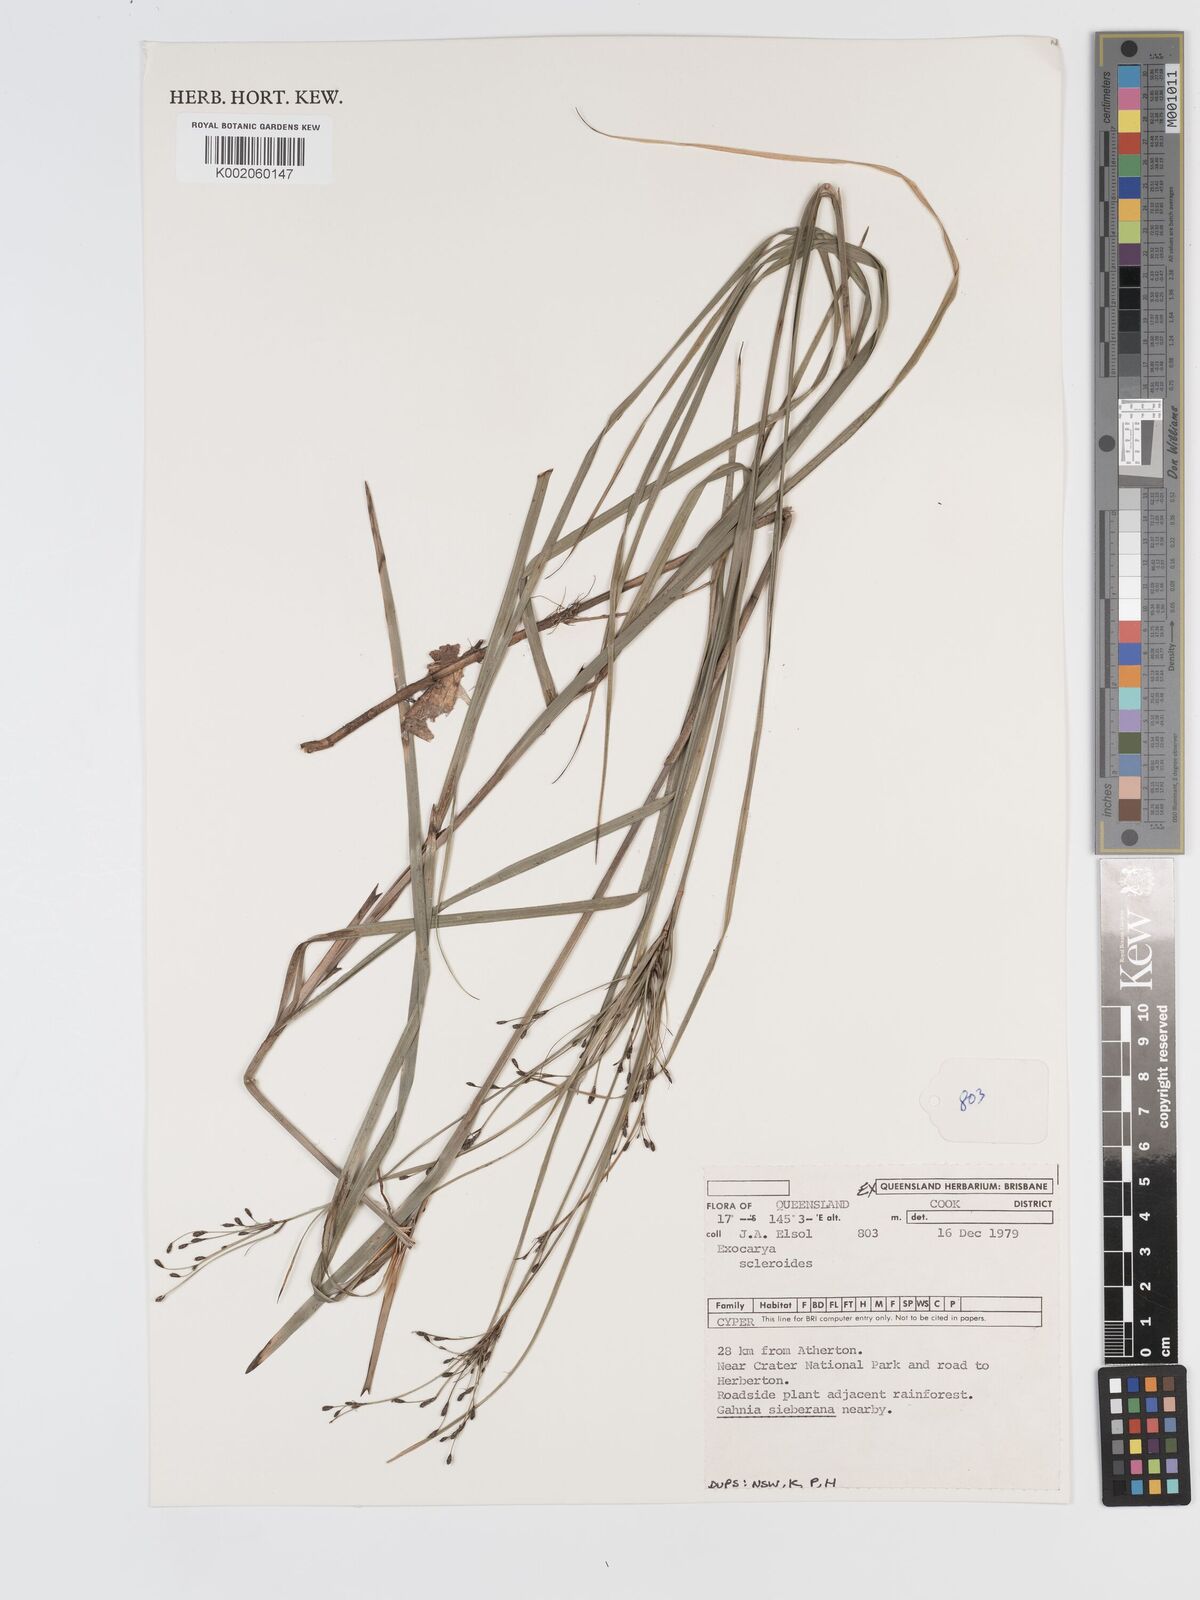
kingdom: Plantae
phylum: Tracheophyta
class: Liliopsida
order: Poales
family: Cyperaceae
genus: Exocarya
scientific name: Exocarya sclerioides
